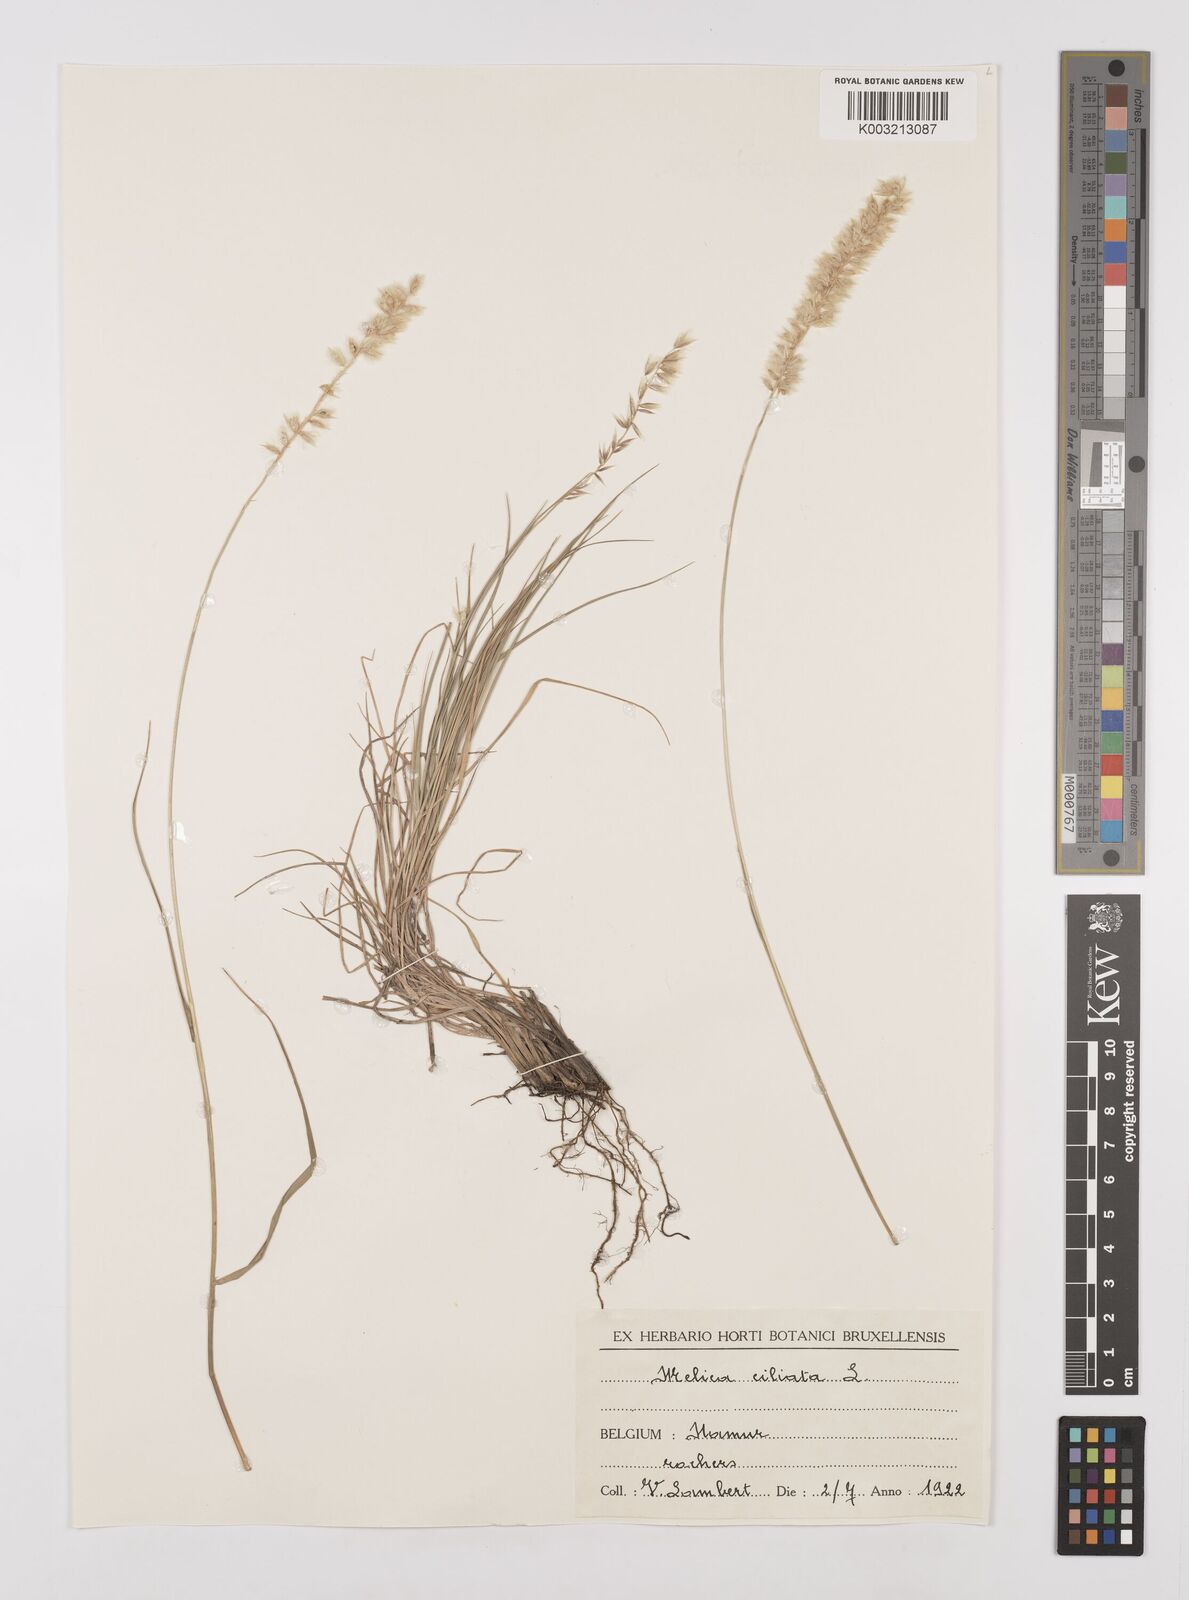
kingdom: Plantae
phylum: Tracheophyta
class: Liliopsida
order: Poales
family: Poaceae
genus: Melica
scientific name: Melica ciliata
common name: Hairy melicgrass
